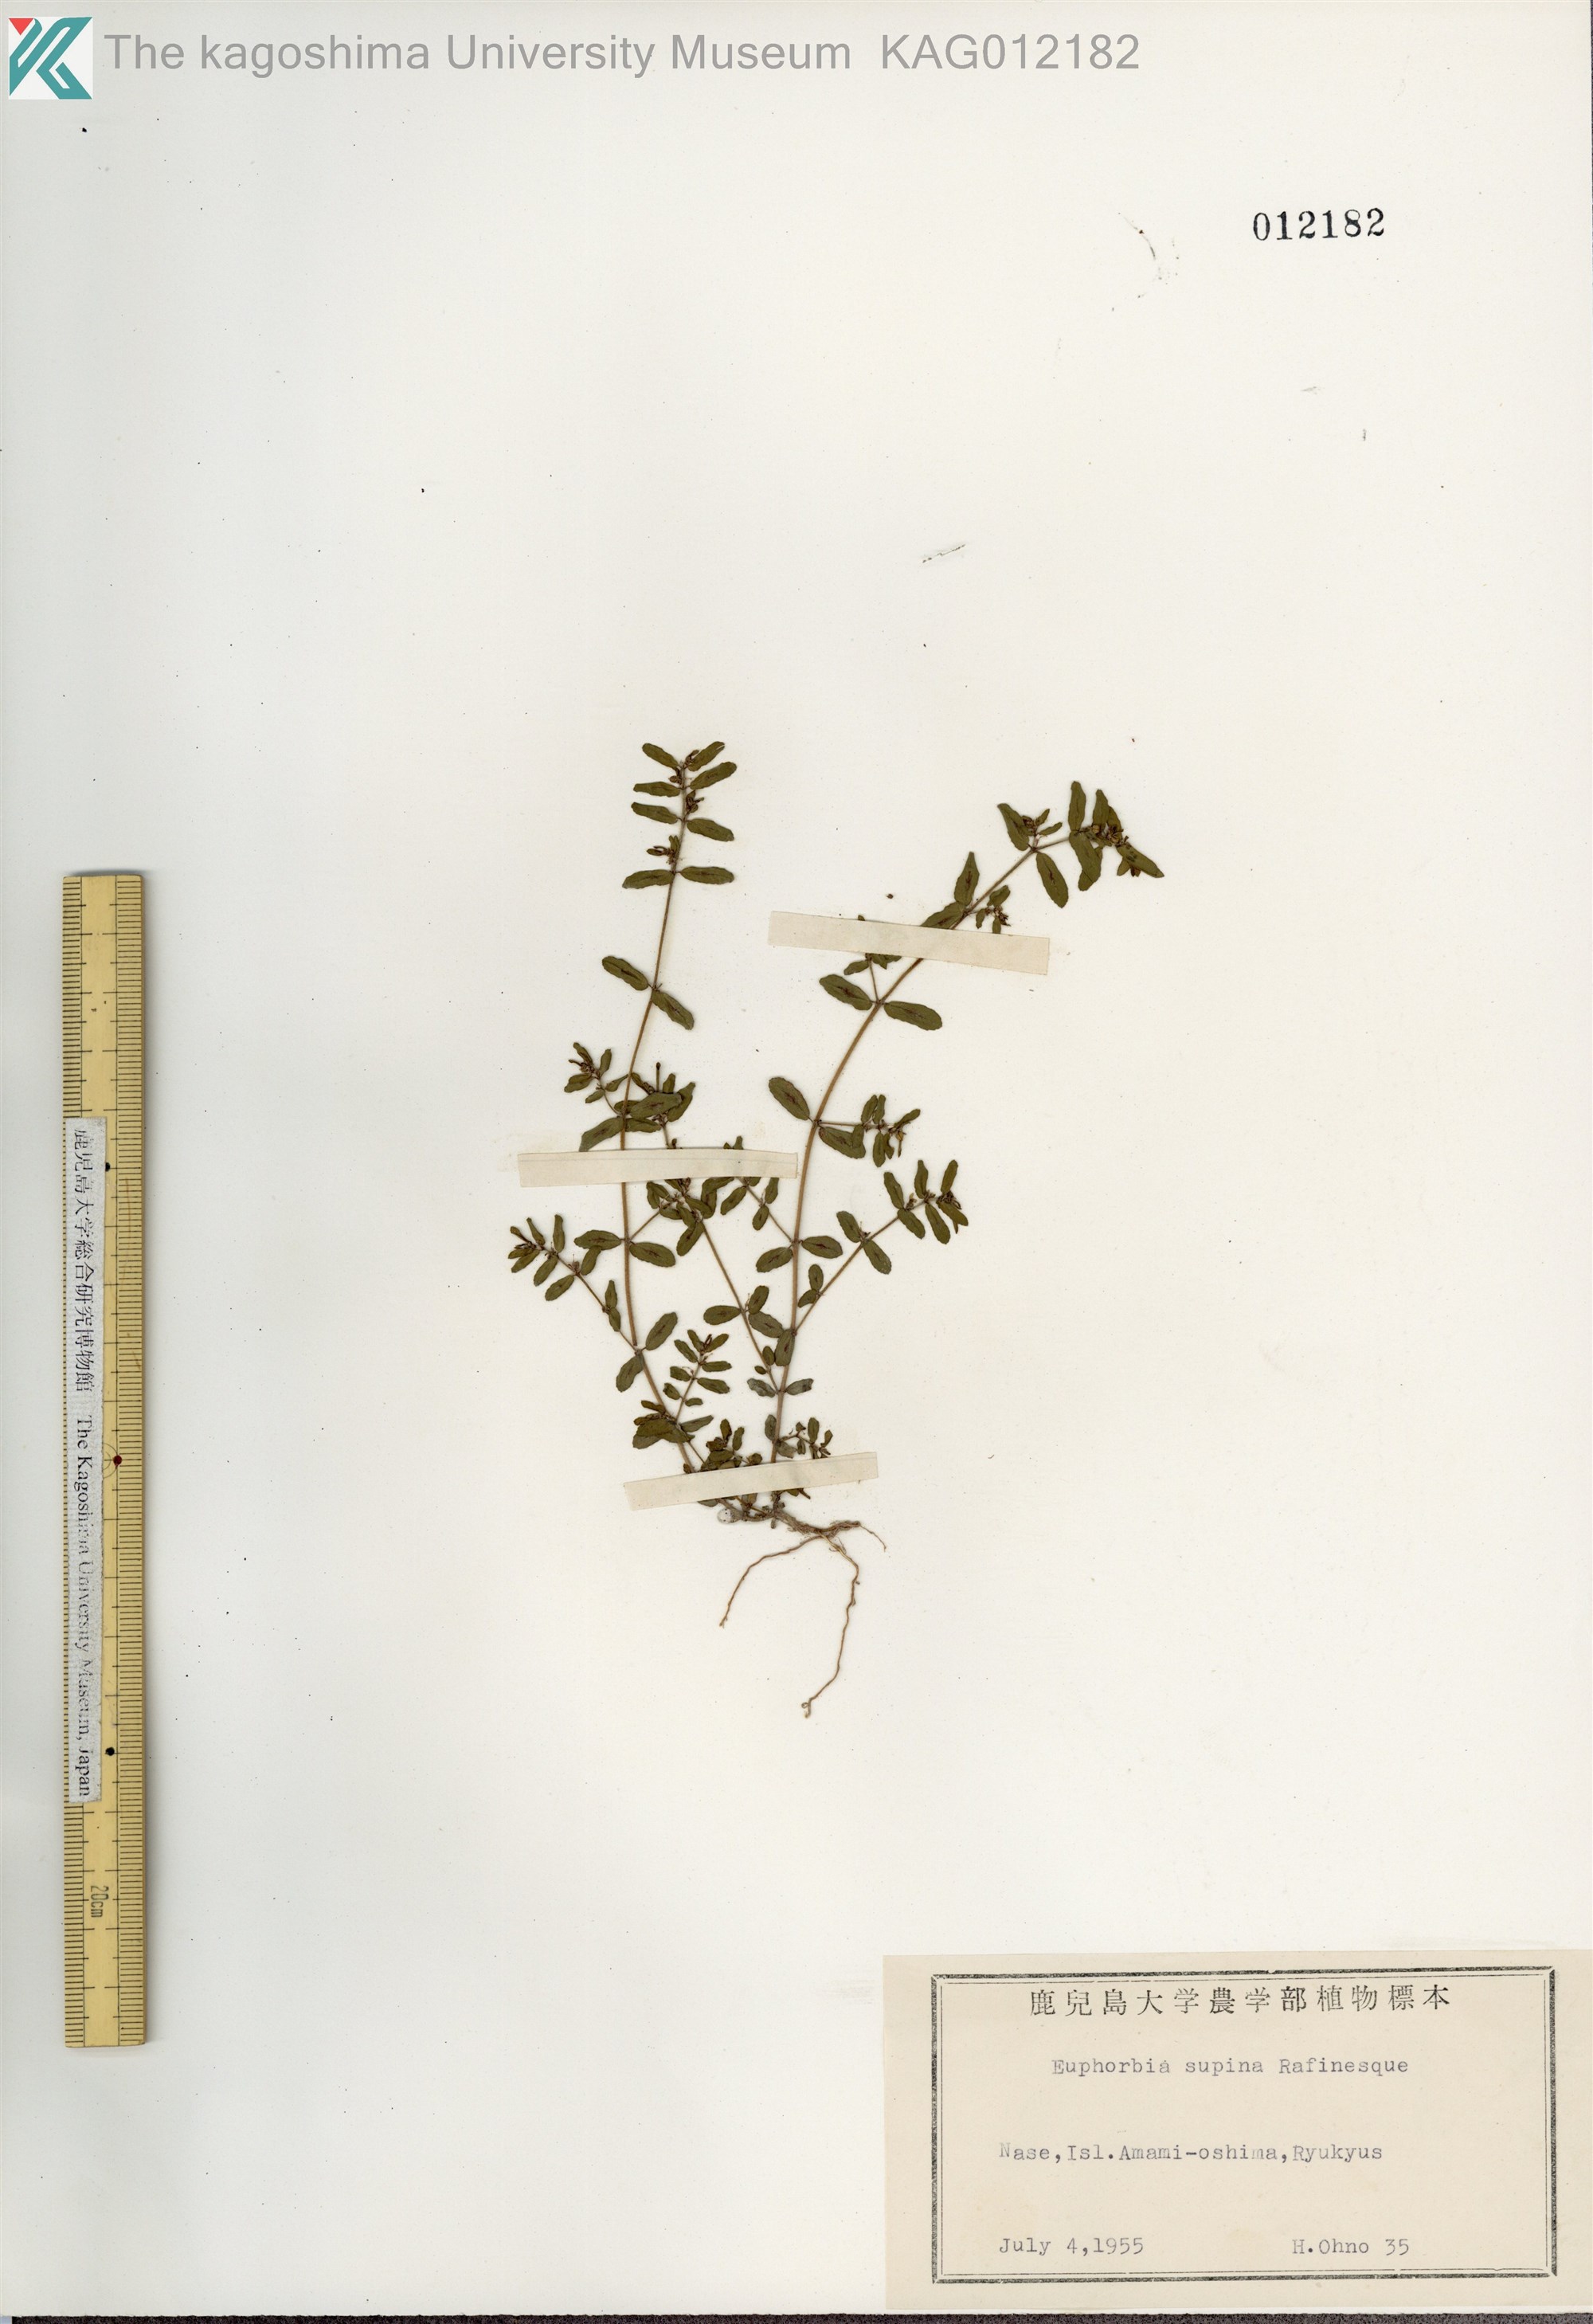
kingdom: Plantae
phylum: Tracheophyta
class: Magnoliopsida
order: Malpighiales
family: Euphorbiaceae
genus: Euphorbia
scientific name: Euphorbia maculata
